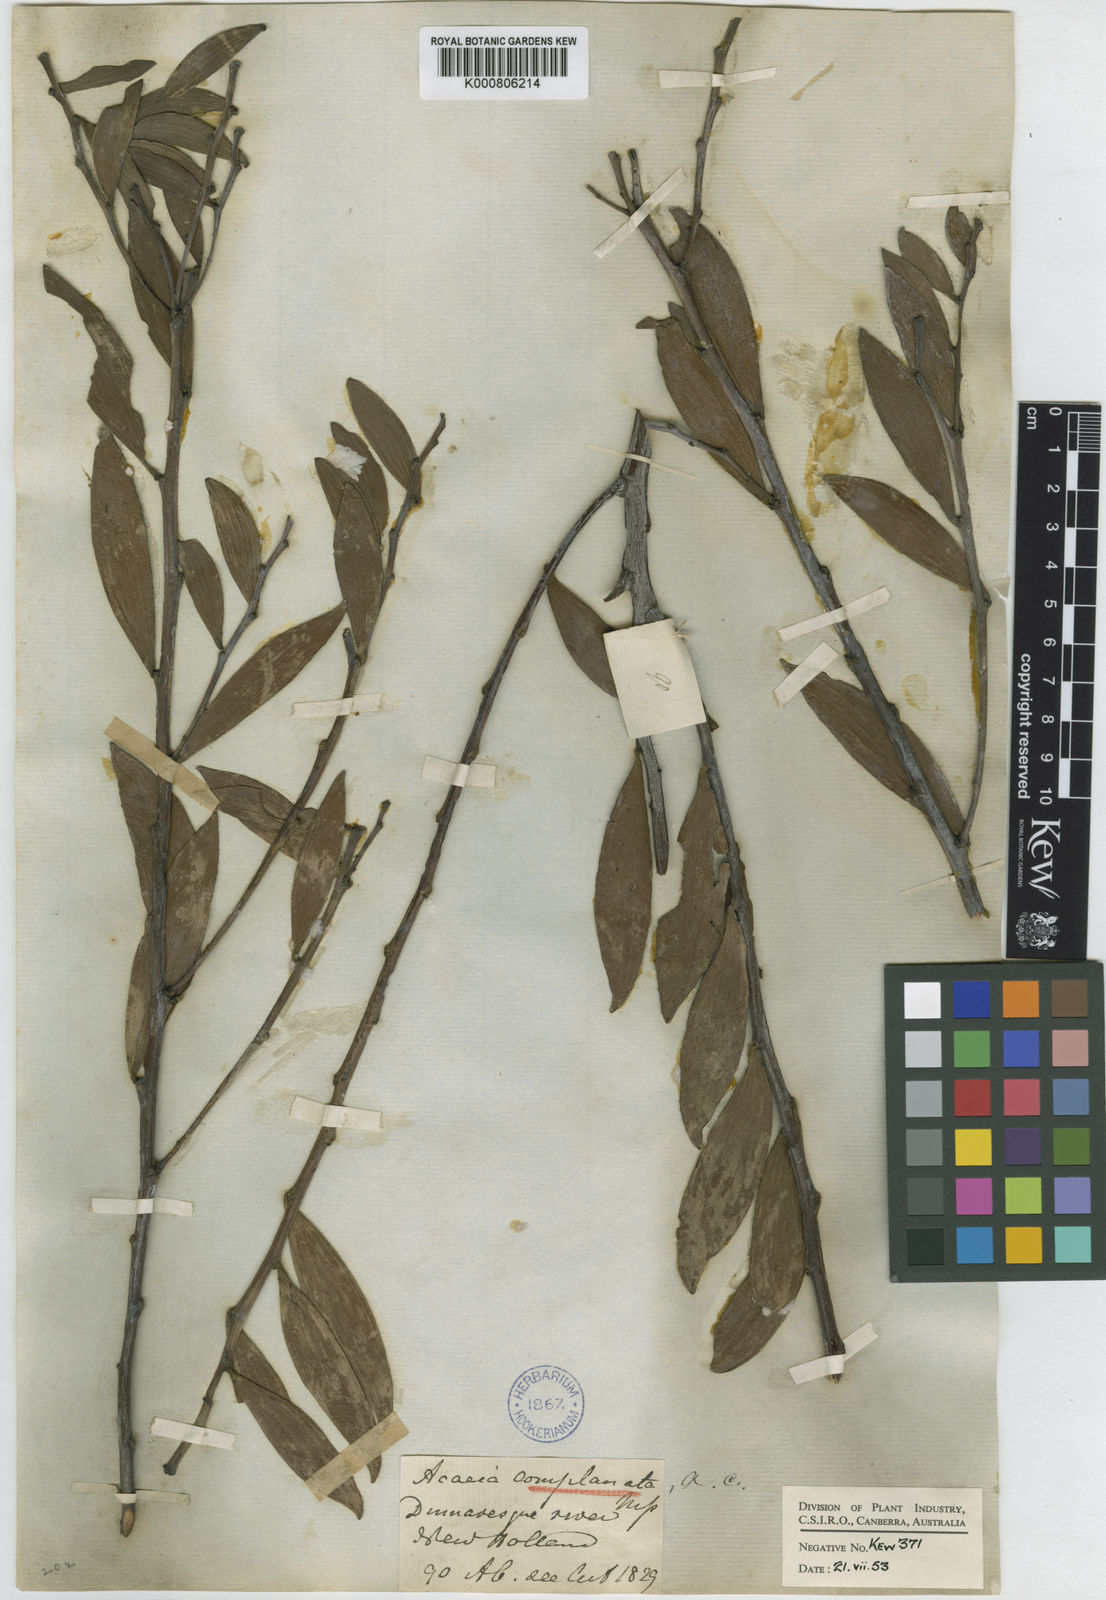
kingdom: Plantae
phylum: Tracheophyta
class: Magnoliopsida
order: Fabales
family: Fabaceae
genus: Acacia
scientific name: Acacia
